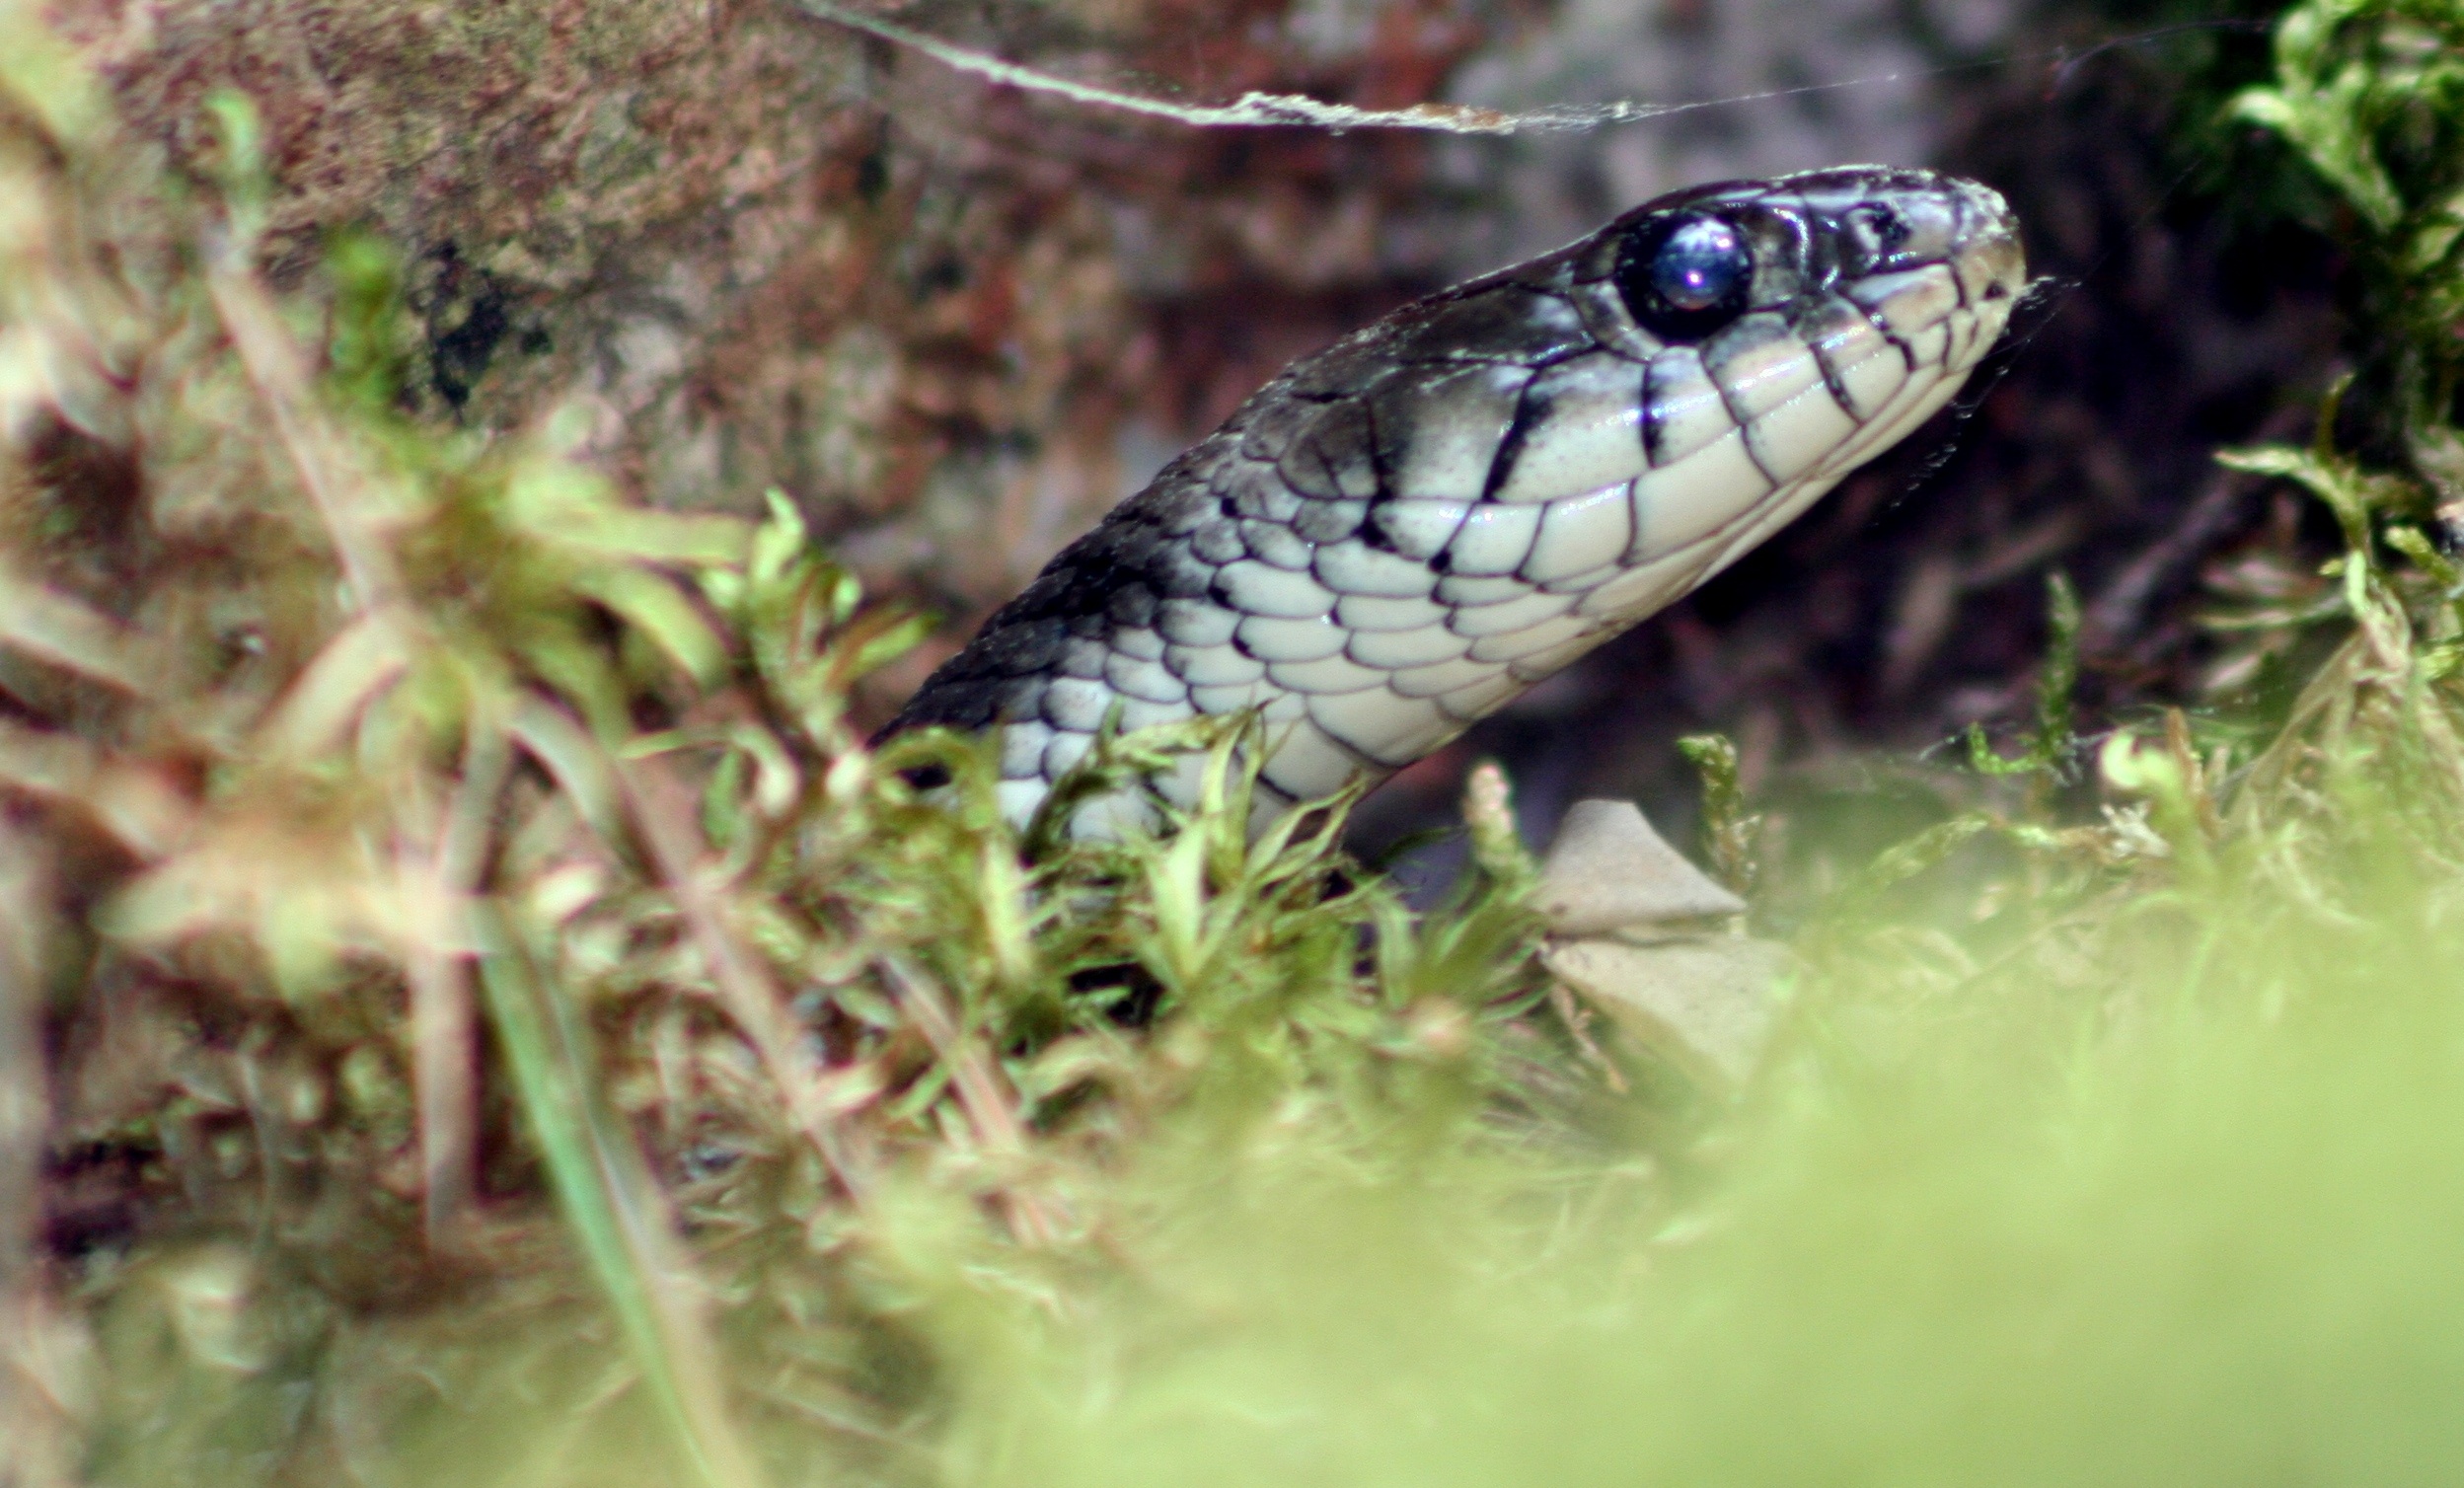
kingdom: Animalia
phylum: Chordata
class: Squamata
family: Colubridae
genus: Natrix
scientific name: Natrix natrix
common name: Grass snake
